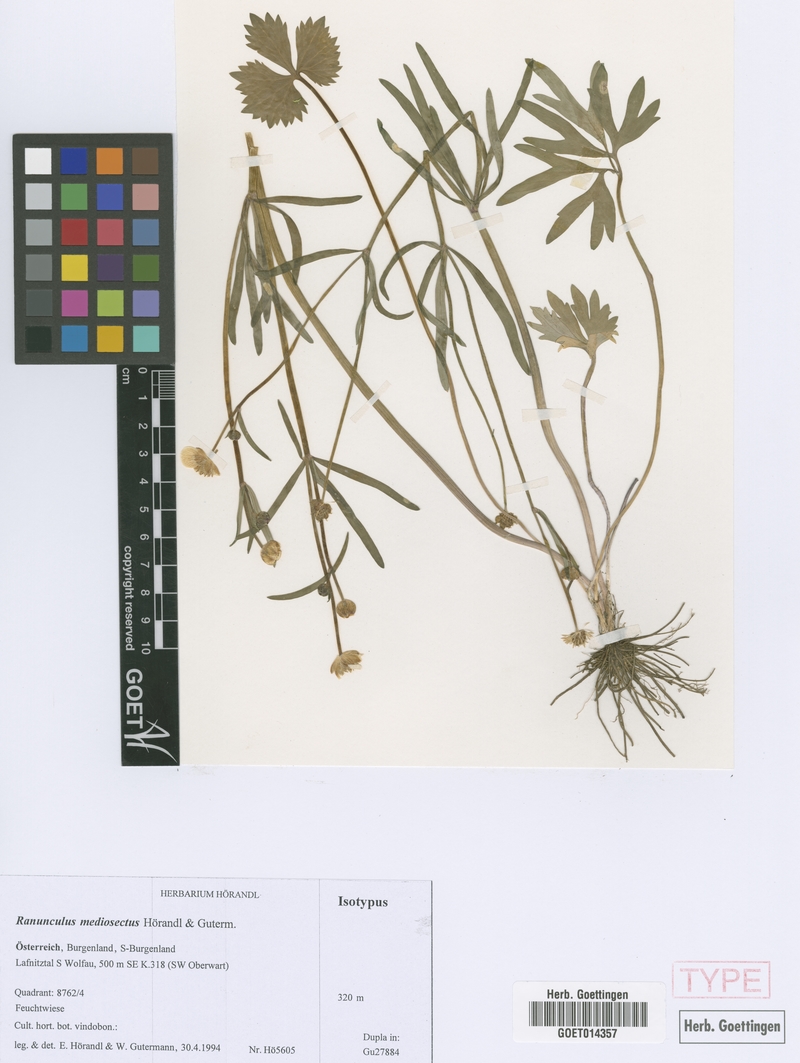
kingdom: Plantae
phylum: Tracheophyta
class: Magnoliopsida
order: Ranunculales
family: Ranunculaceae
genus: Ranunculus
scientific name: Ranunculus mediosectus
